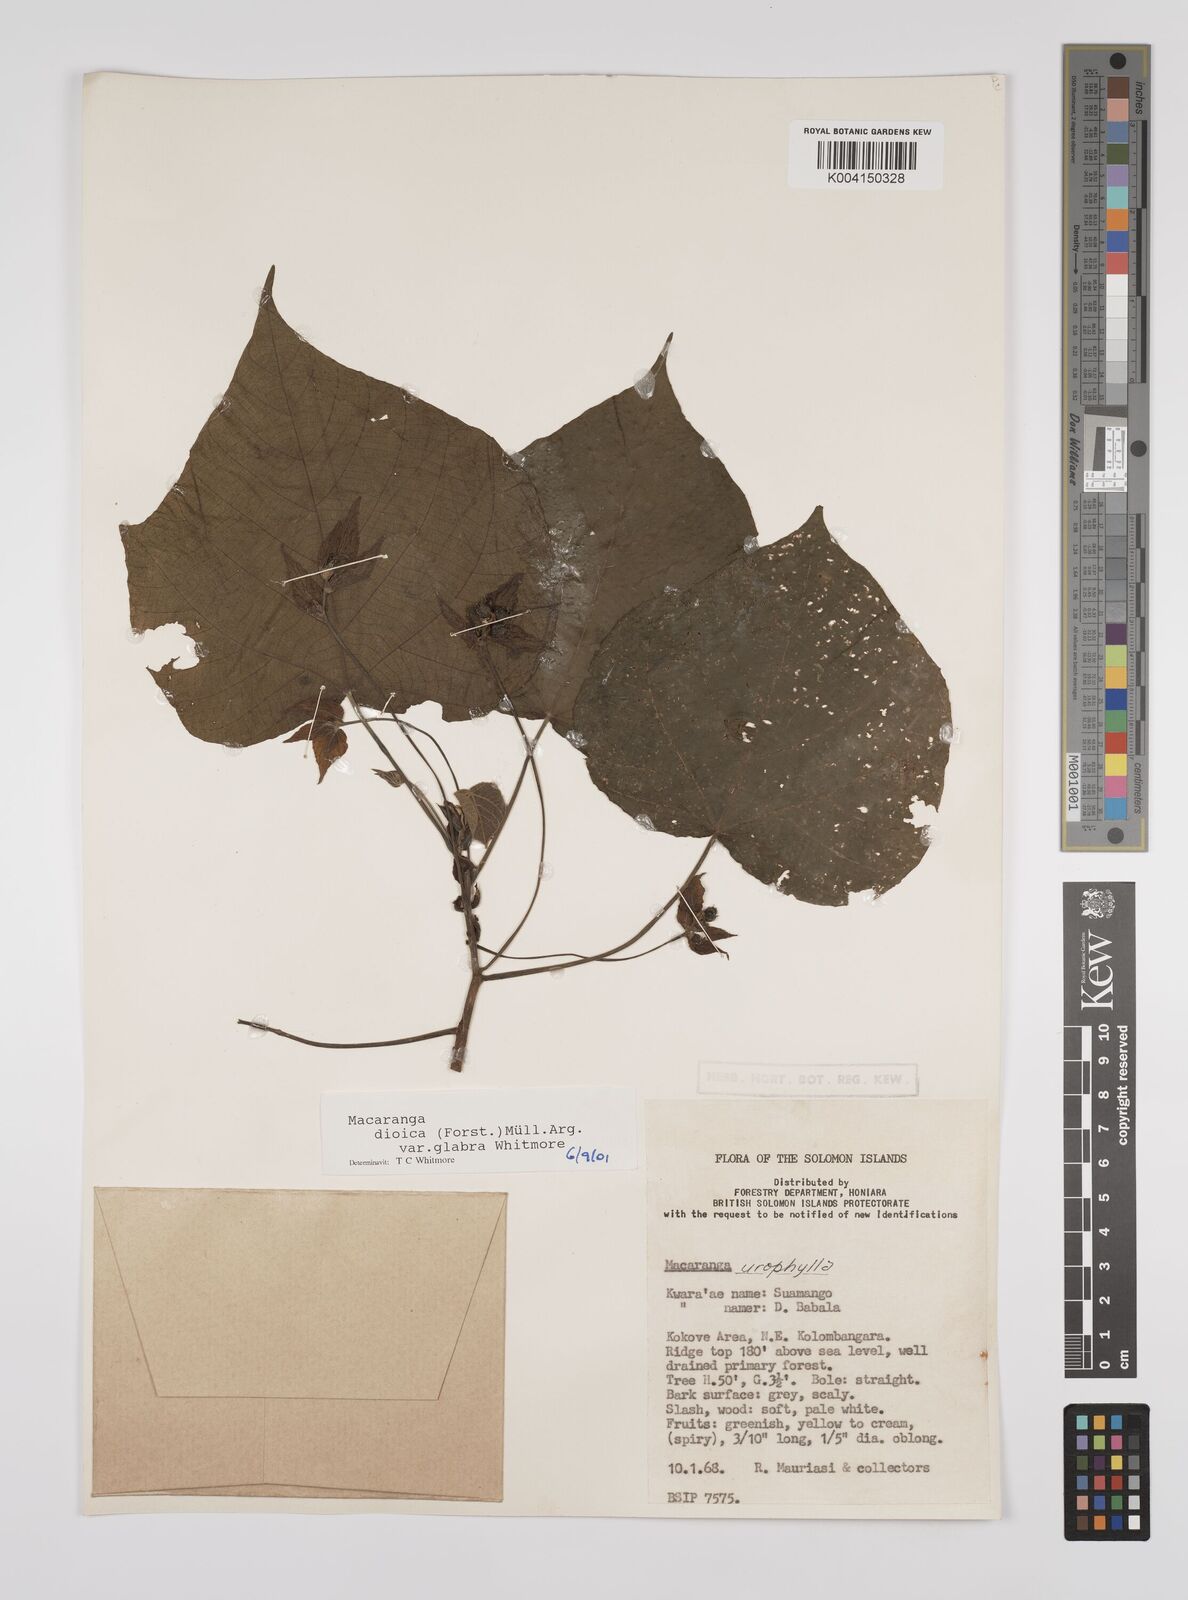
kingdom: Plantae
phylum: Tracheophyta
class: Magnoliopsida
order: Malpighiales
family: Euphorbiaceae
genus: Macaranga
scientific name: Macaranga dioica
